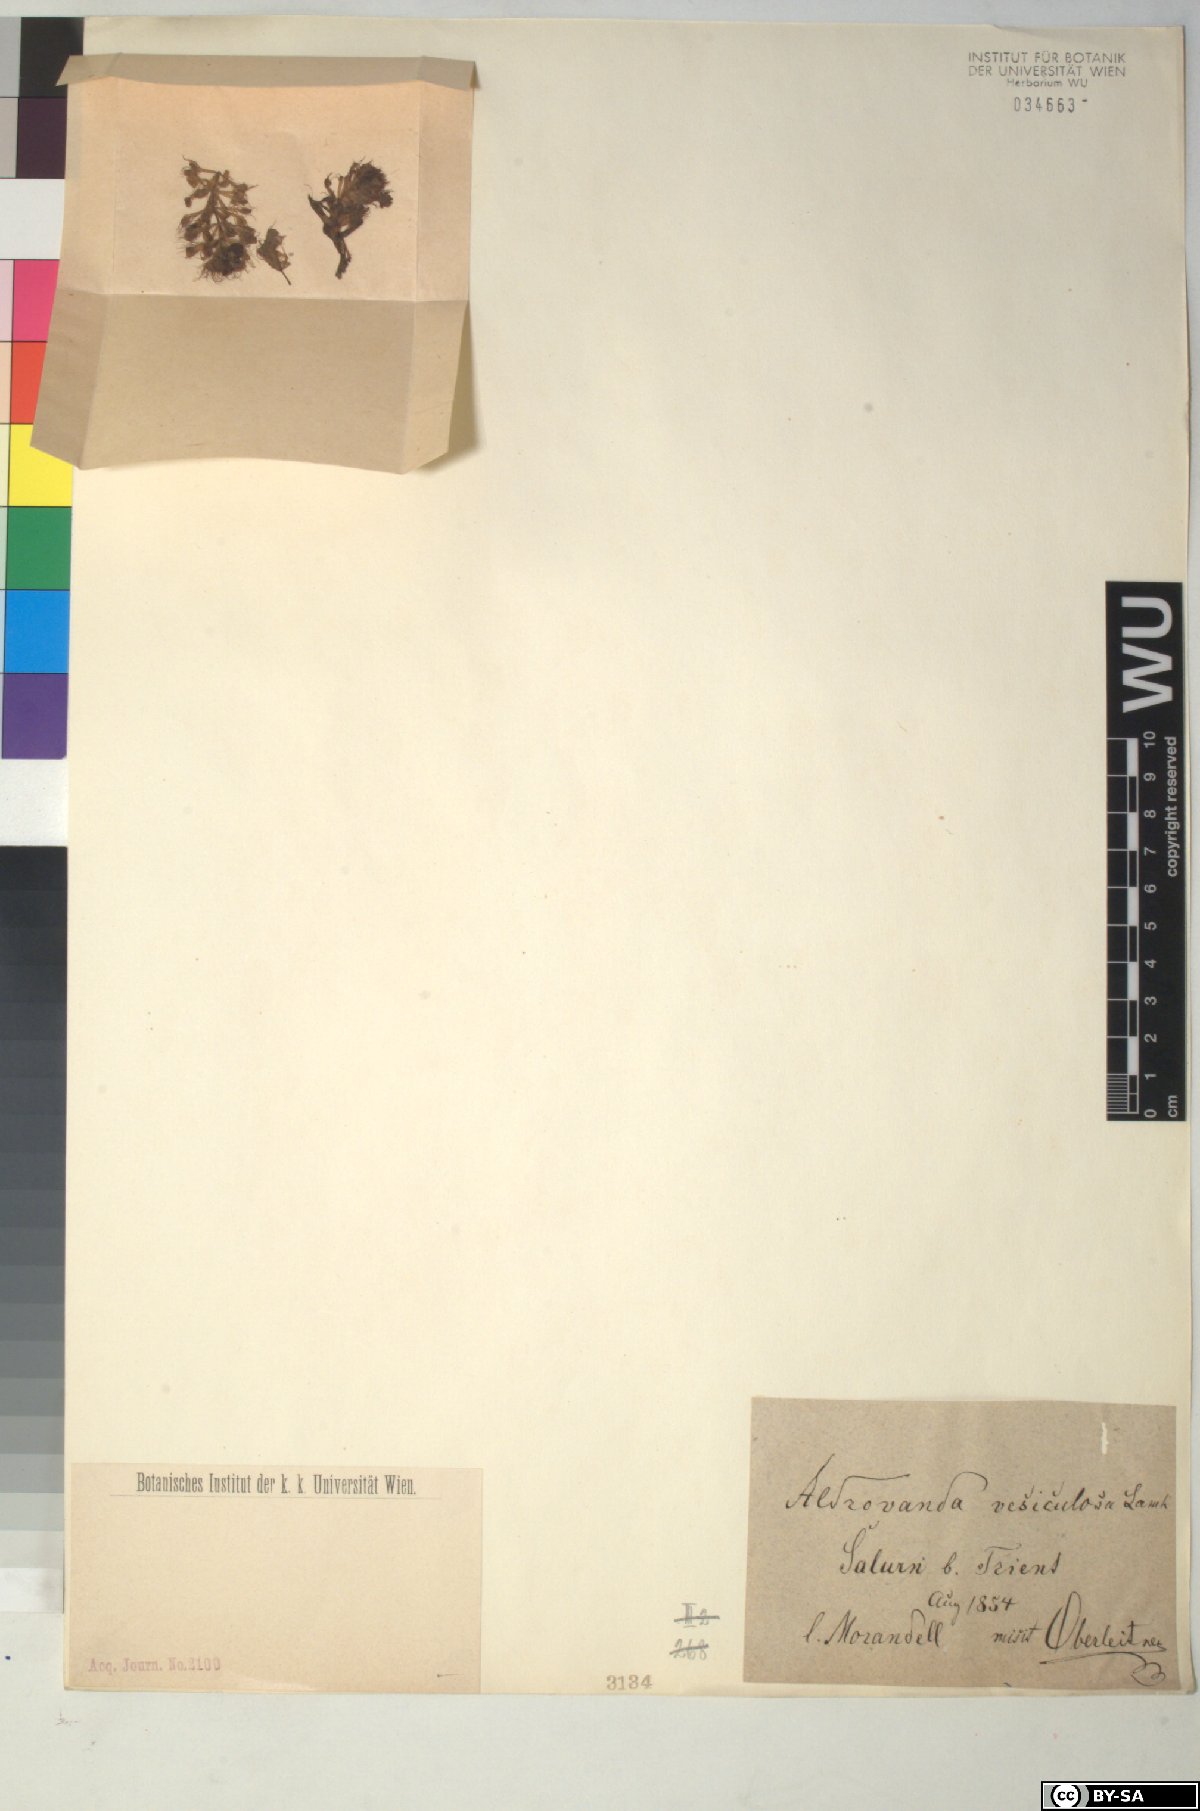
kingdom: Plantae
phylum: Tracheophyta
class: Magnoliopsida
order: Caryophyllales
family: Droseraceae
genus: Aldrovanda
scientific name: Aldrovanda vesiculosa
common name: Waterwheel plant
